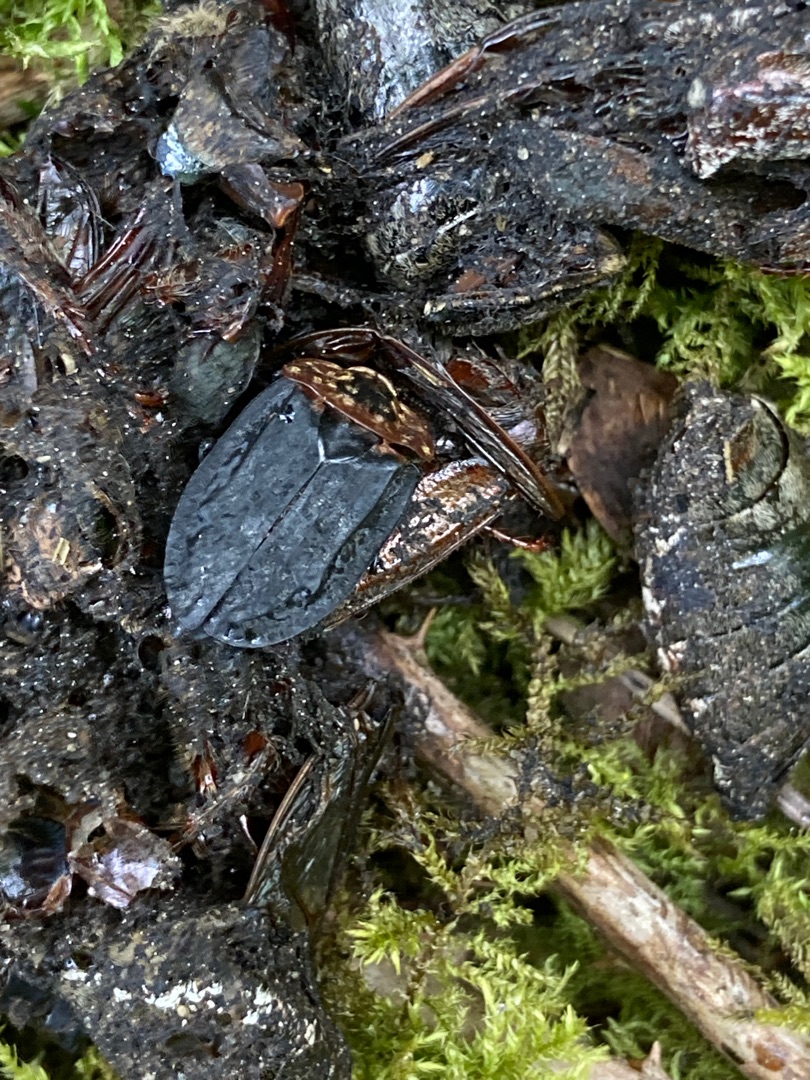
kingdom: Animalia
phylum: Arthropoda
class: Insecta
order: Coleoptera
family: Staphylinidae
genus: Oiceoptoma
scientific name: Oiceoptoma thoracicum
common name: Rødbrystet ådselbille
